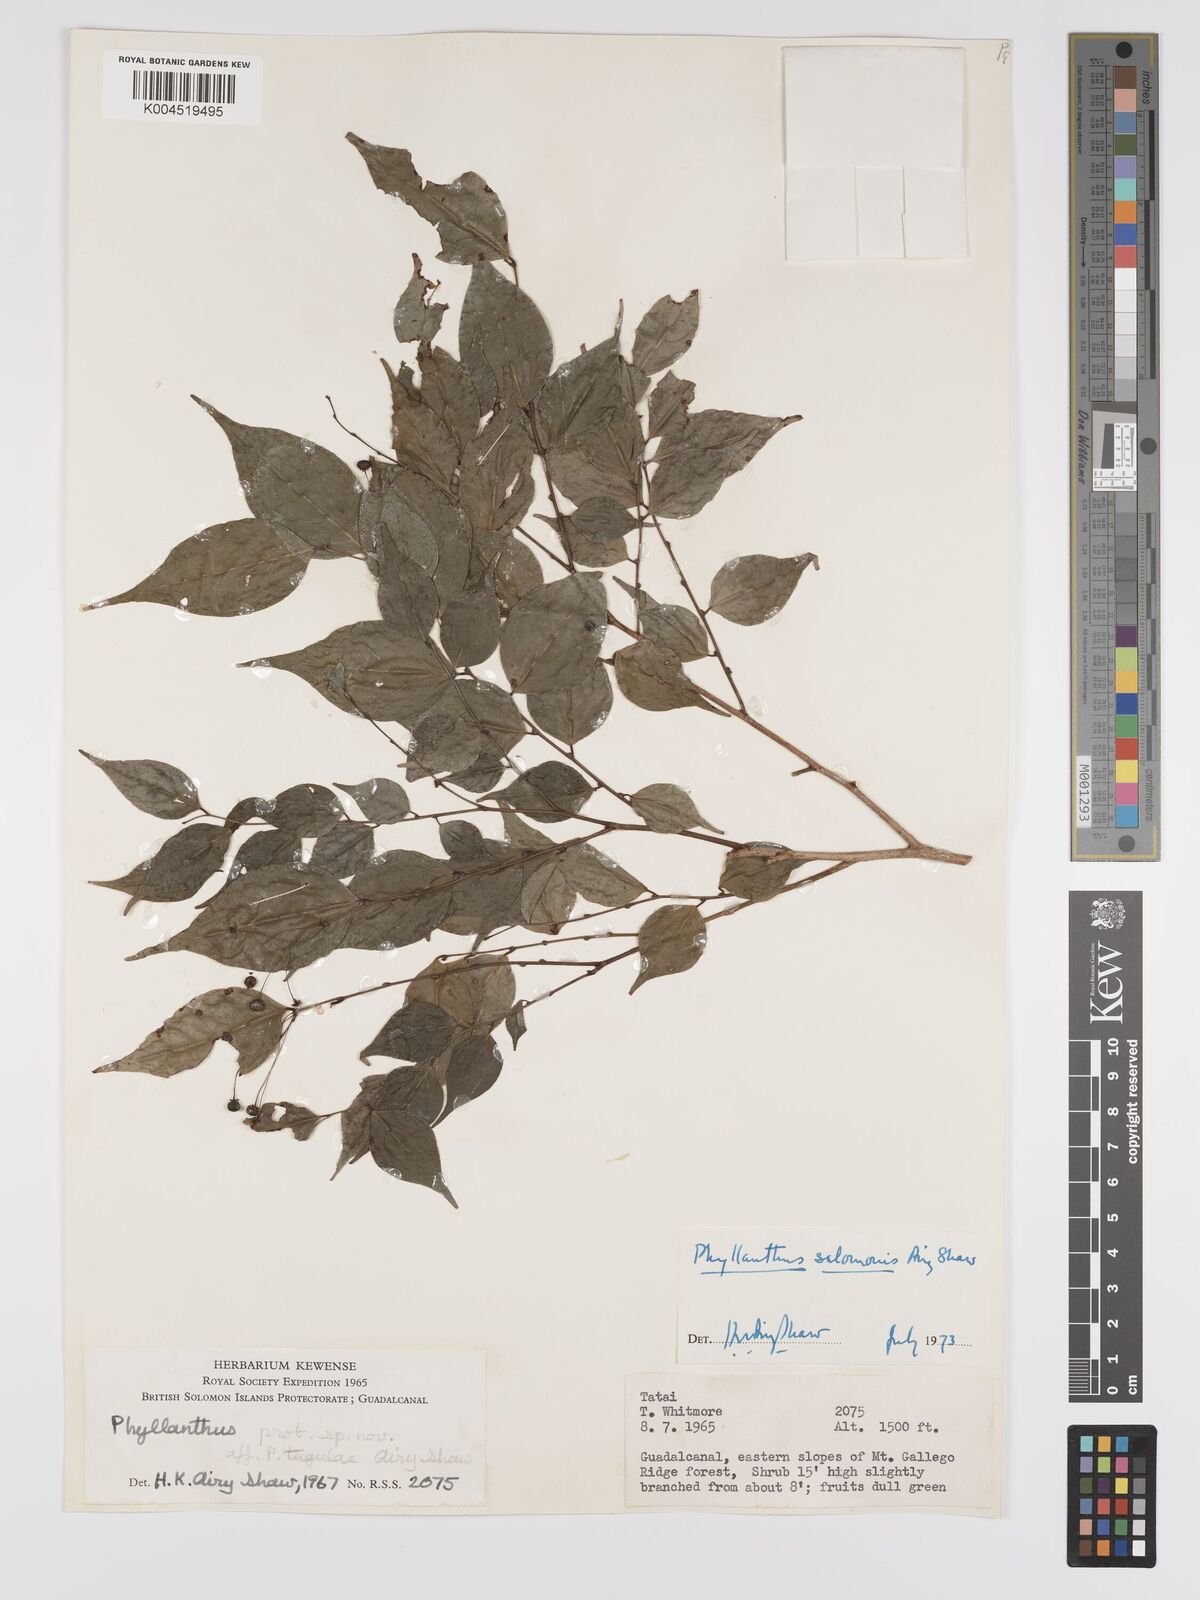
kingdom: Plantae
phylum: Tracheophyta
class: Magnoliopsida
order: Malpighiales
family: Phyllanthaceae
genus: Phyllanthus
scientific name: Phyllanthus salomonis
